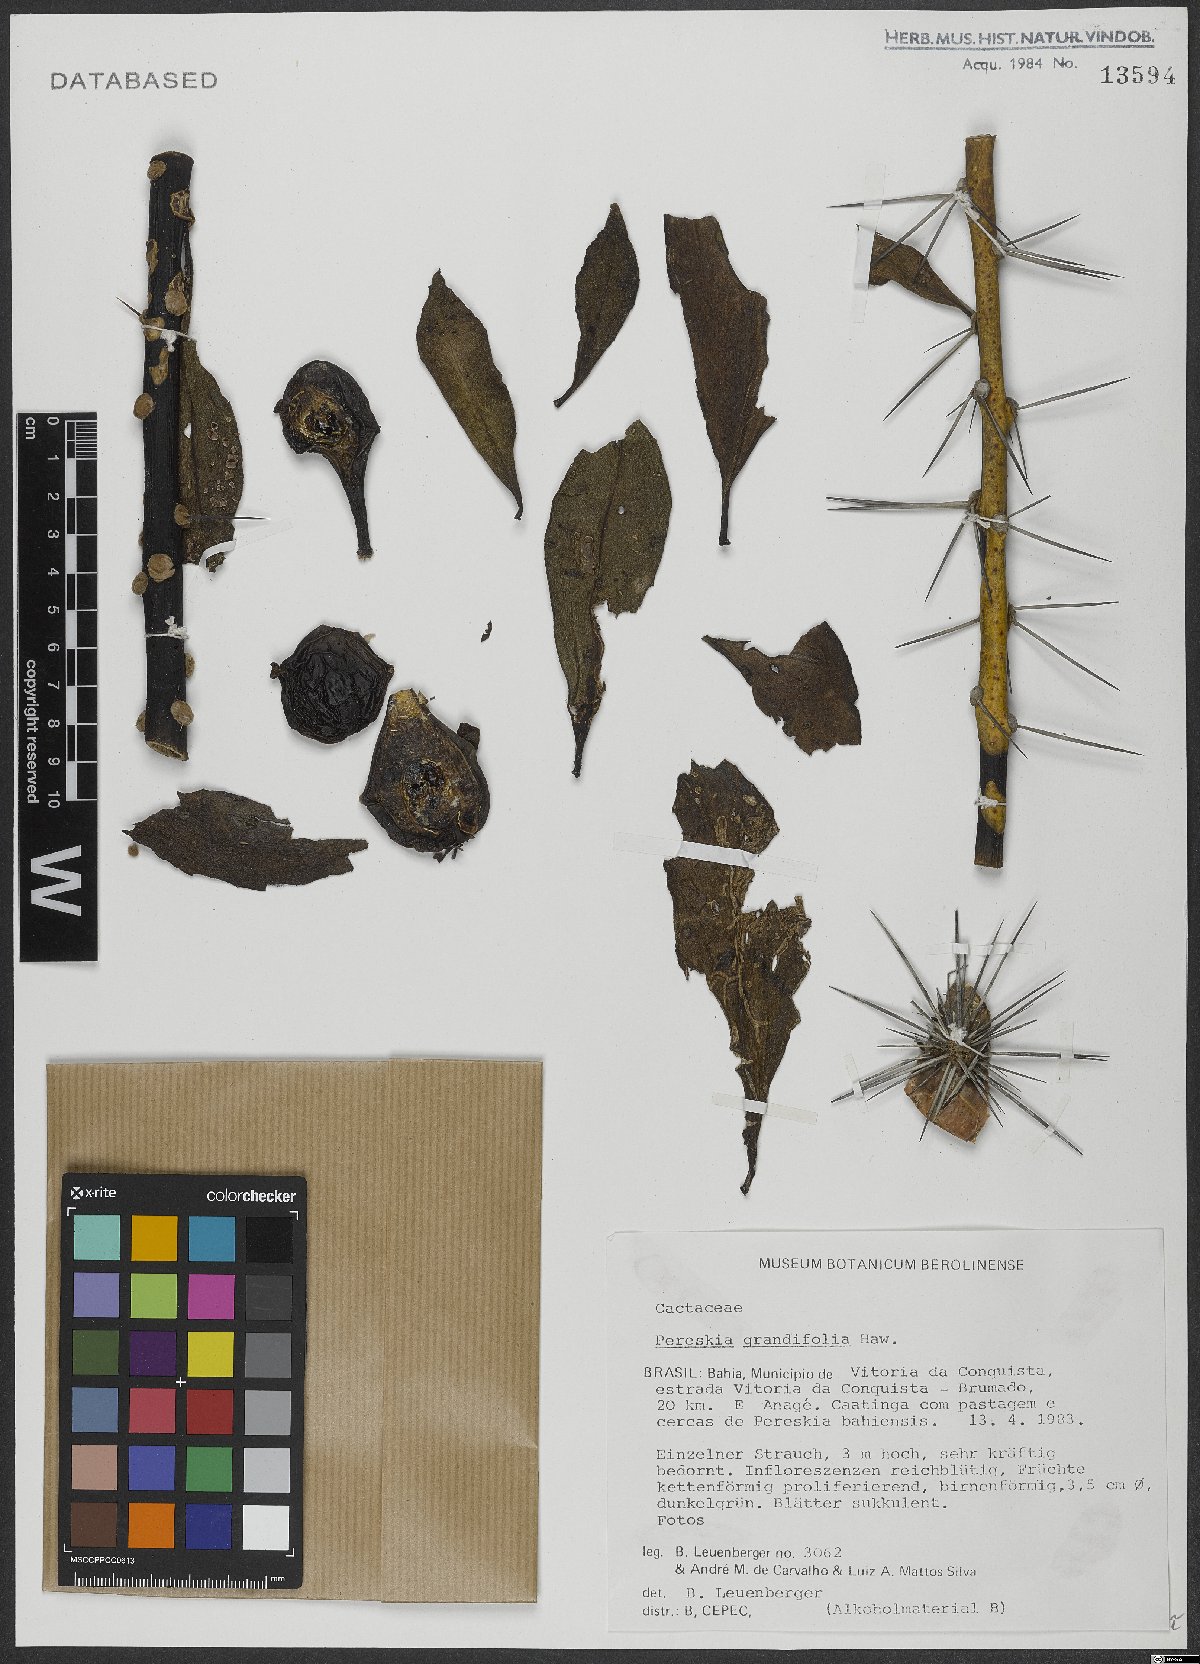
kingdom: Plantae
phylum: Tracheophyta
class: Magnoliopsida
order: Caryophyllales
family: Cactaceae
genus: Pereskia
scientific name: Pereskia grandifolia
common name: Rose cactus
